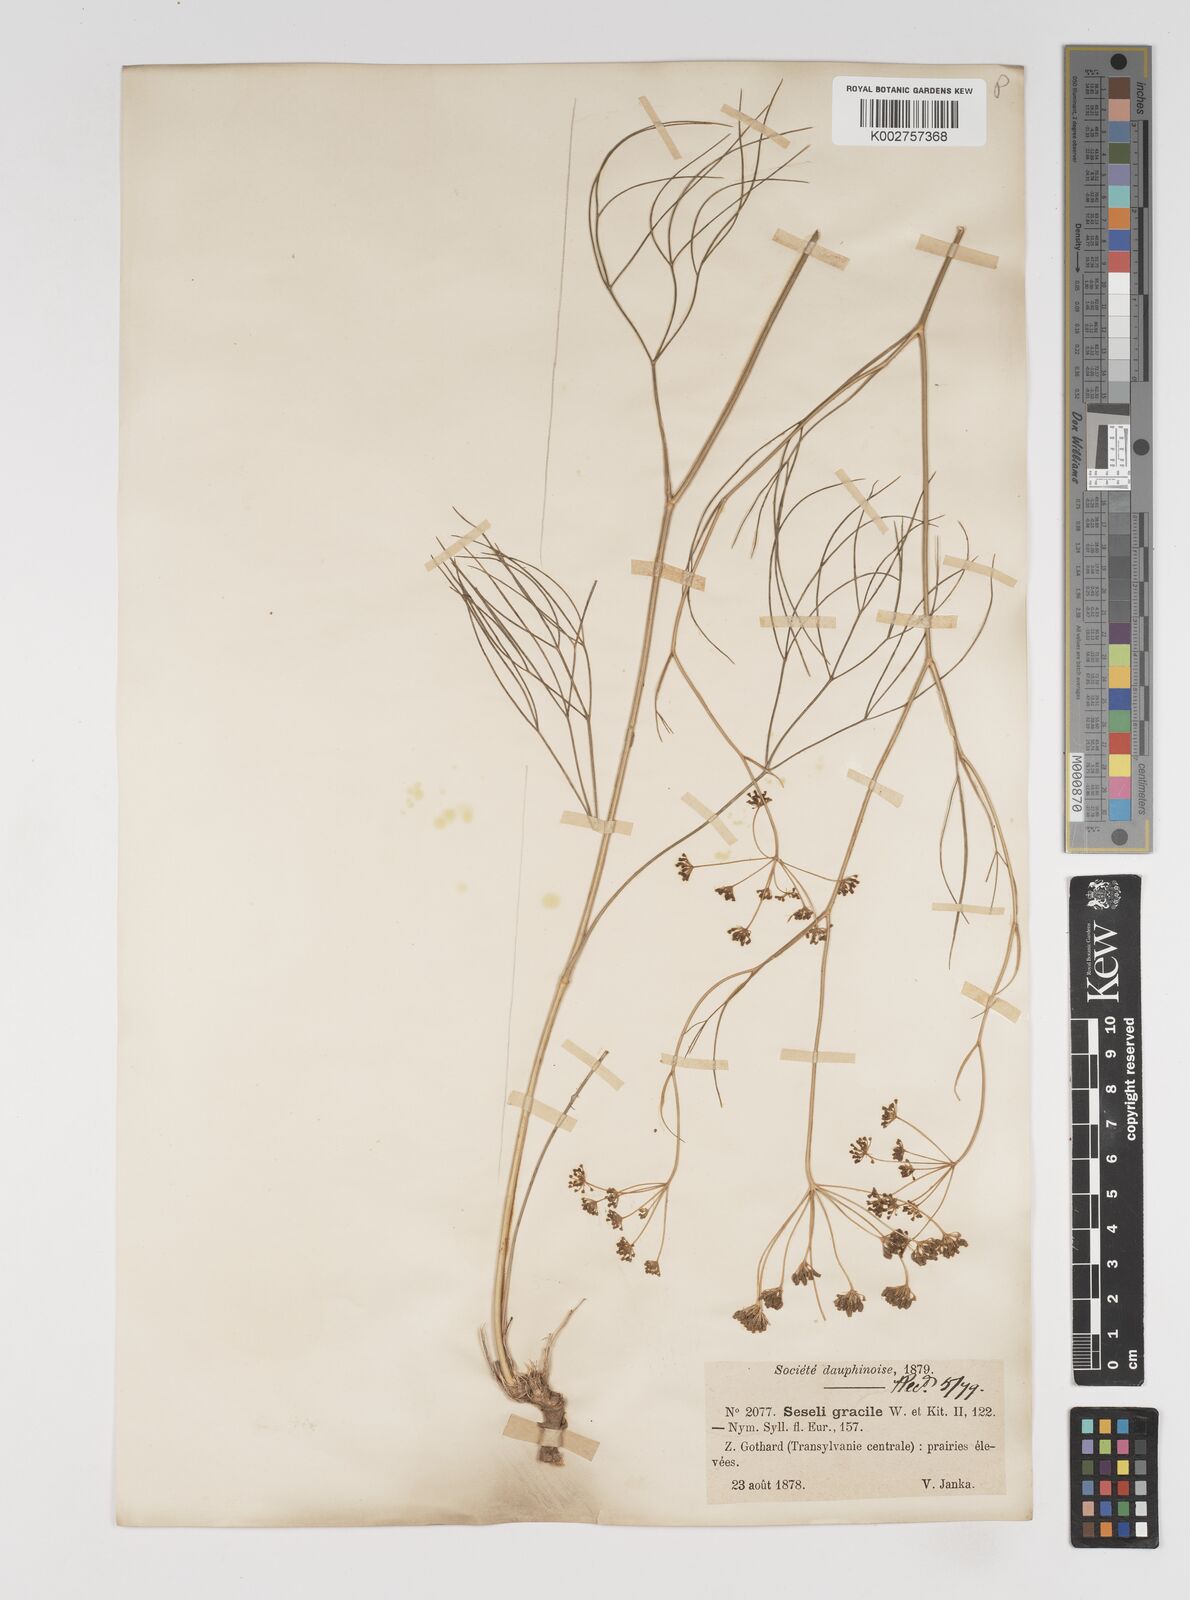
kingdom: Plantae
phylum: Tracheophyta
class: Magnoliopsida
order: Apiales
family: Apiaceae
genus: Seseli
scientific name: Seseli gracile
